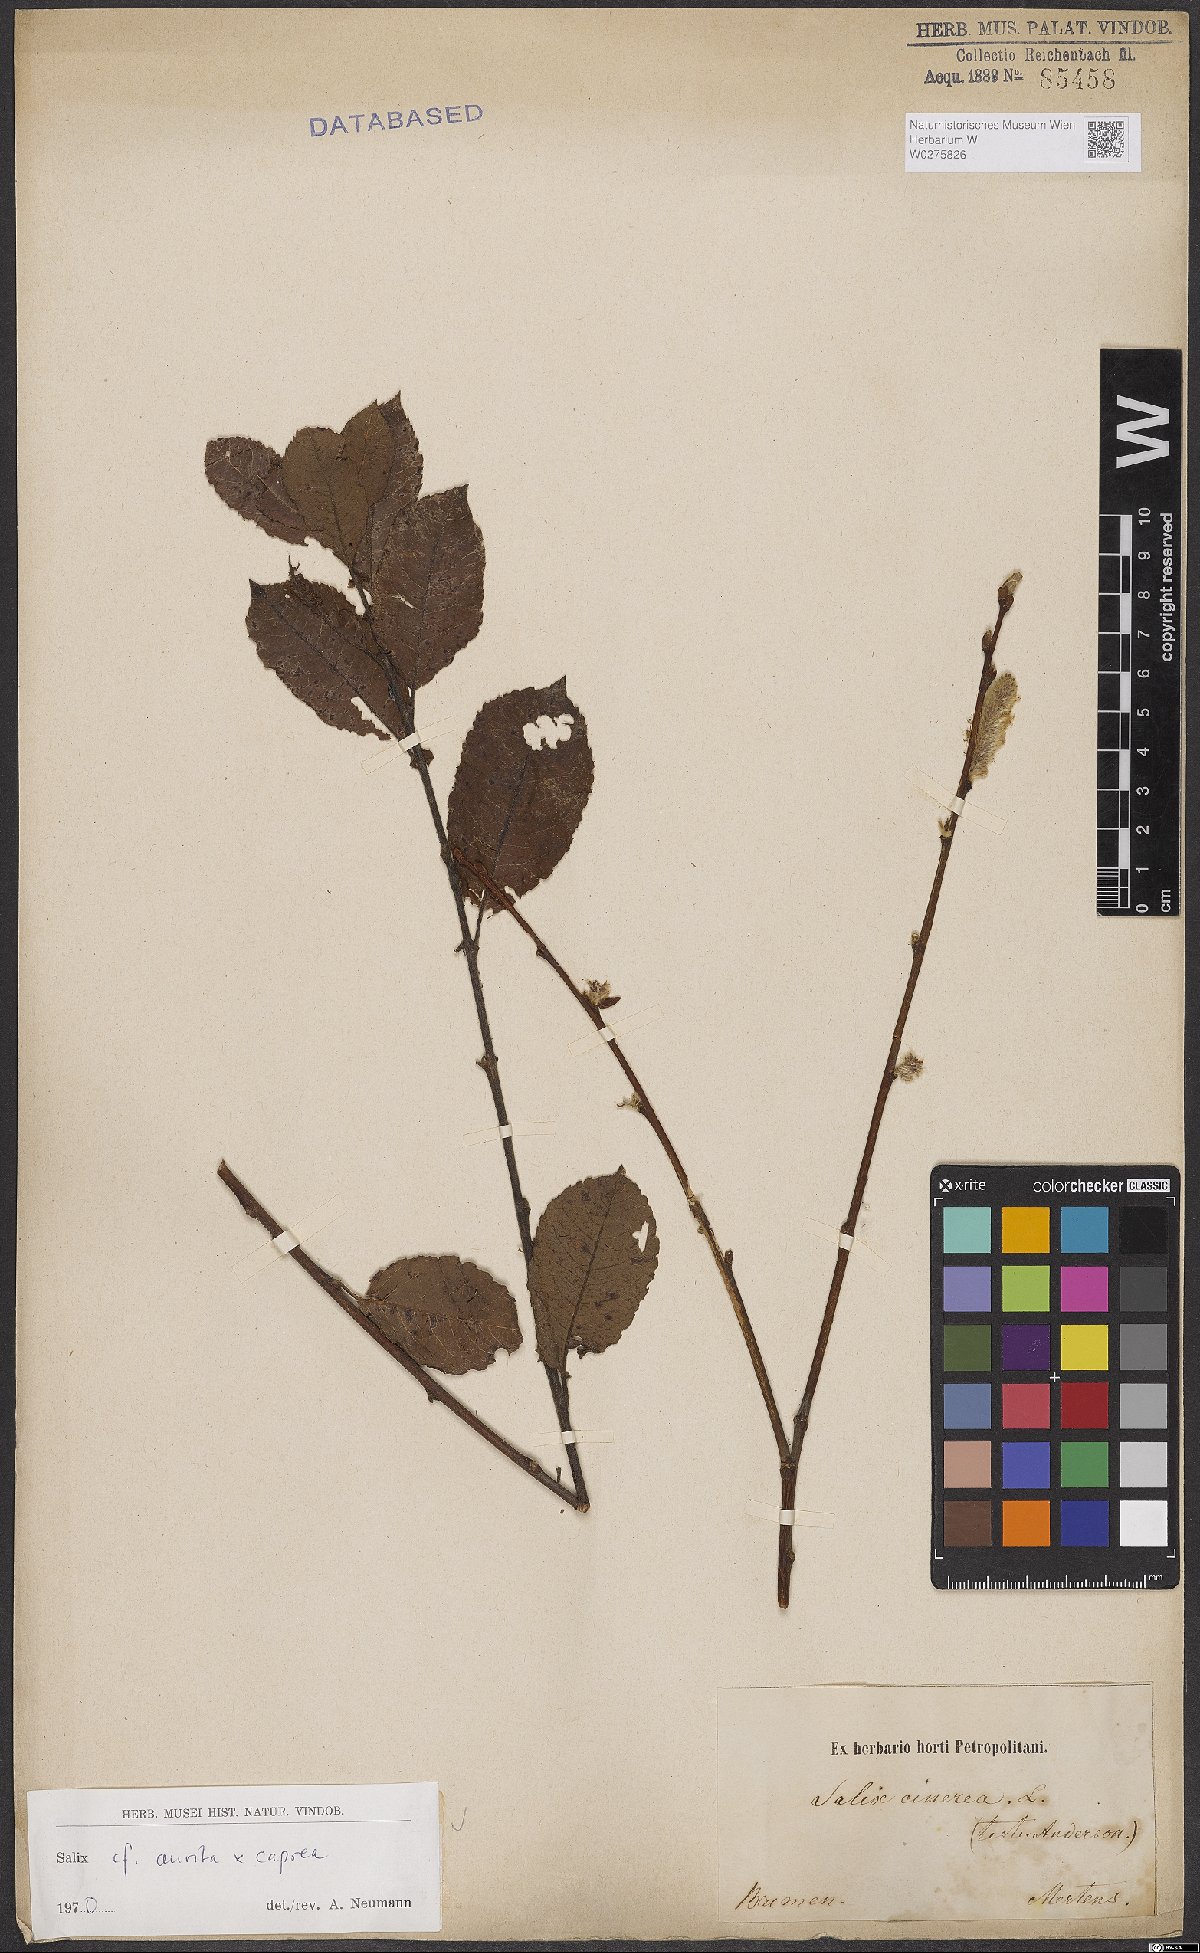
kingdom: Plantae
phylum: Tracheophyta
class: Magnoliopsida
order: Malpighiales
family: Salicaceae
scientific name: Salicaceae
